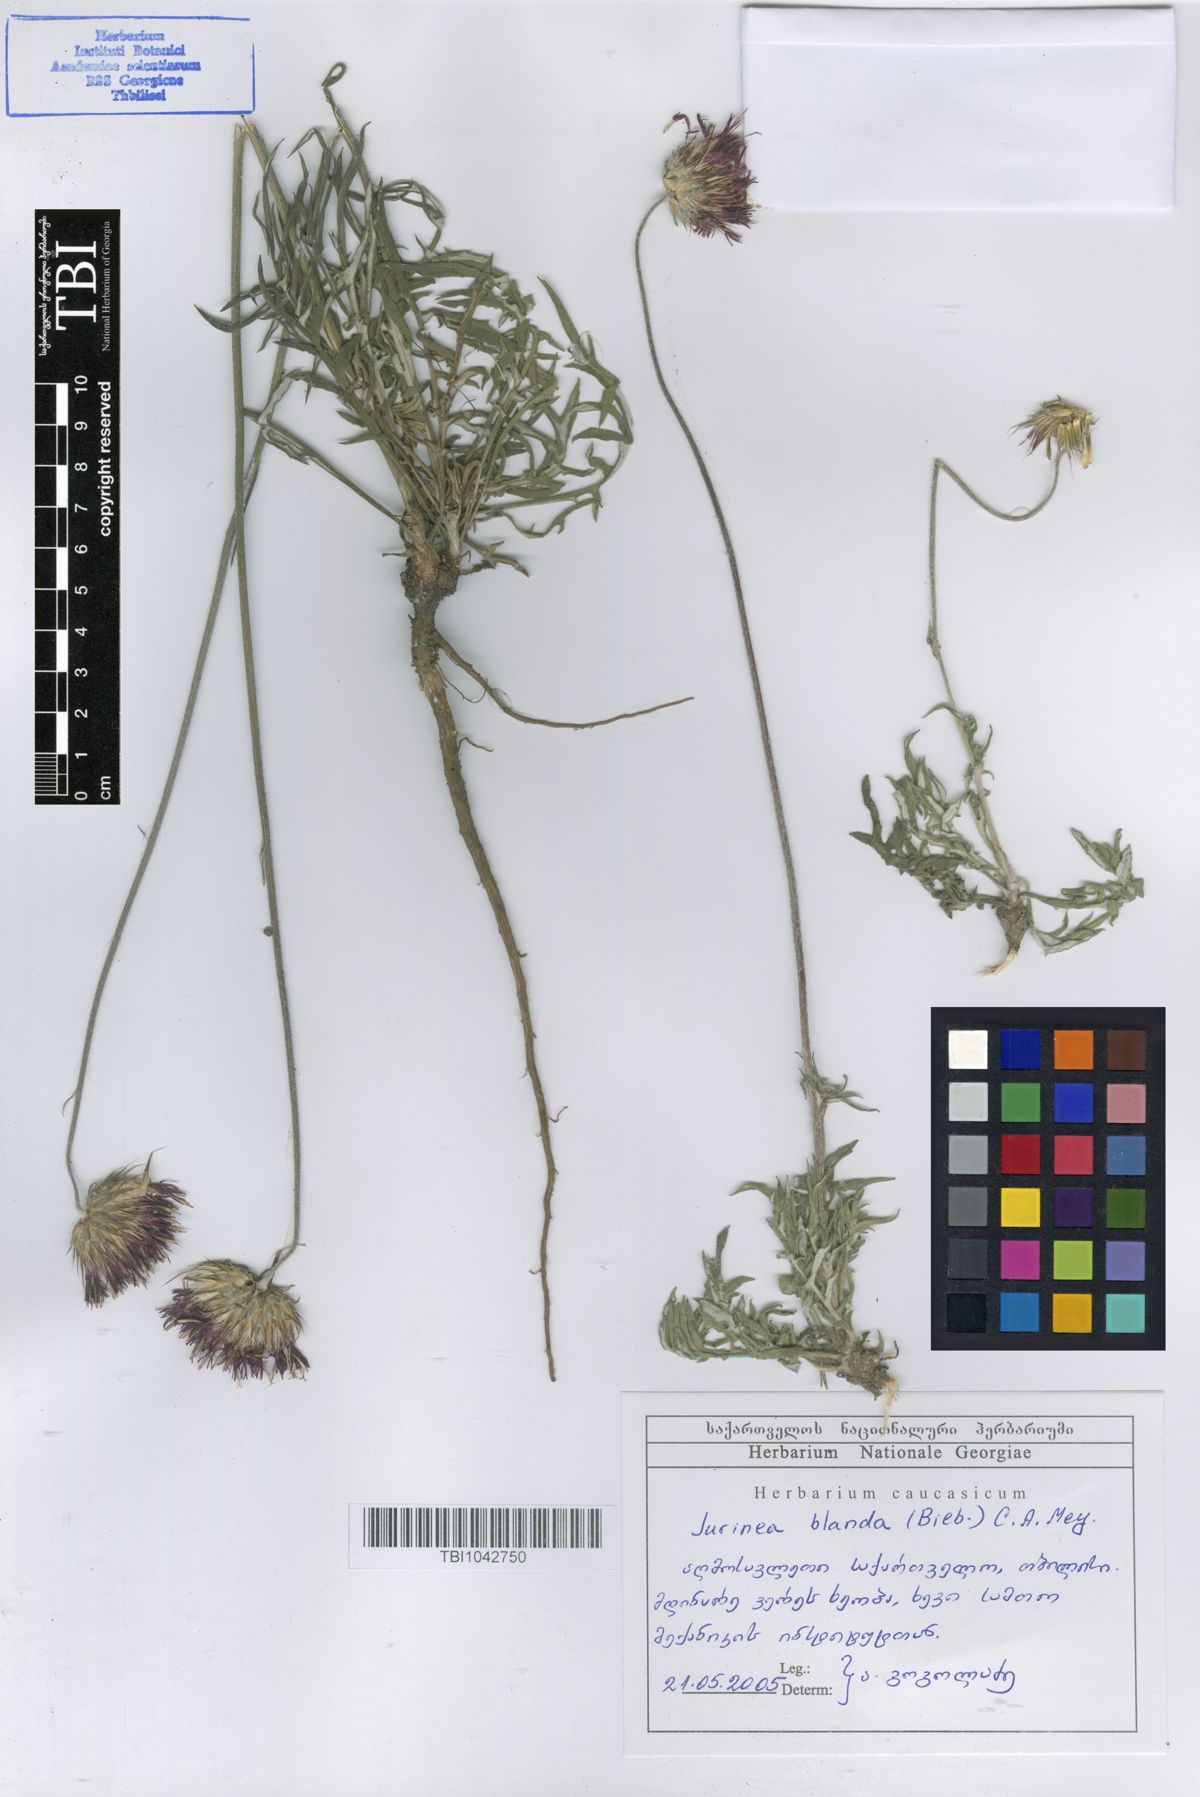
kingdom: Plantae
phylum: Tracheophyta
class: Magnoliopsida
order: Asterales
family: Asteraceae
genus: Jurinea
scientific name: Jurinea blanda
